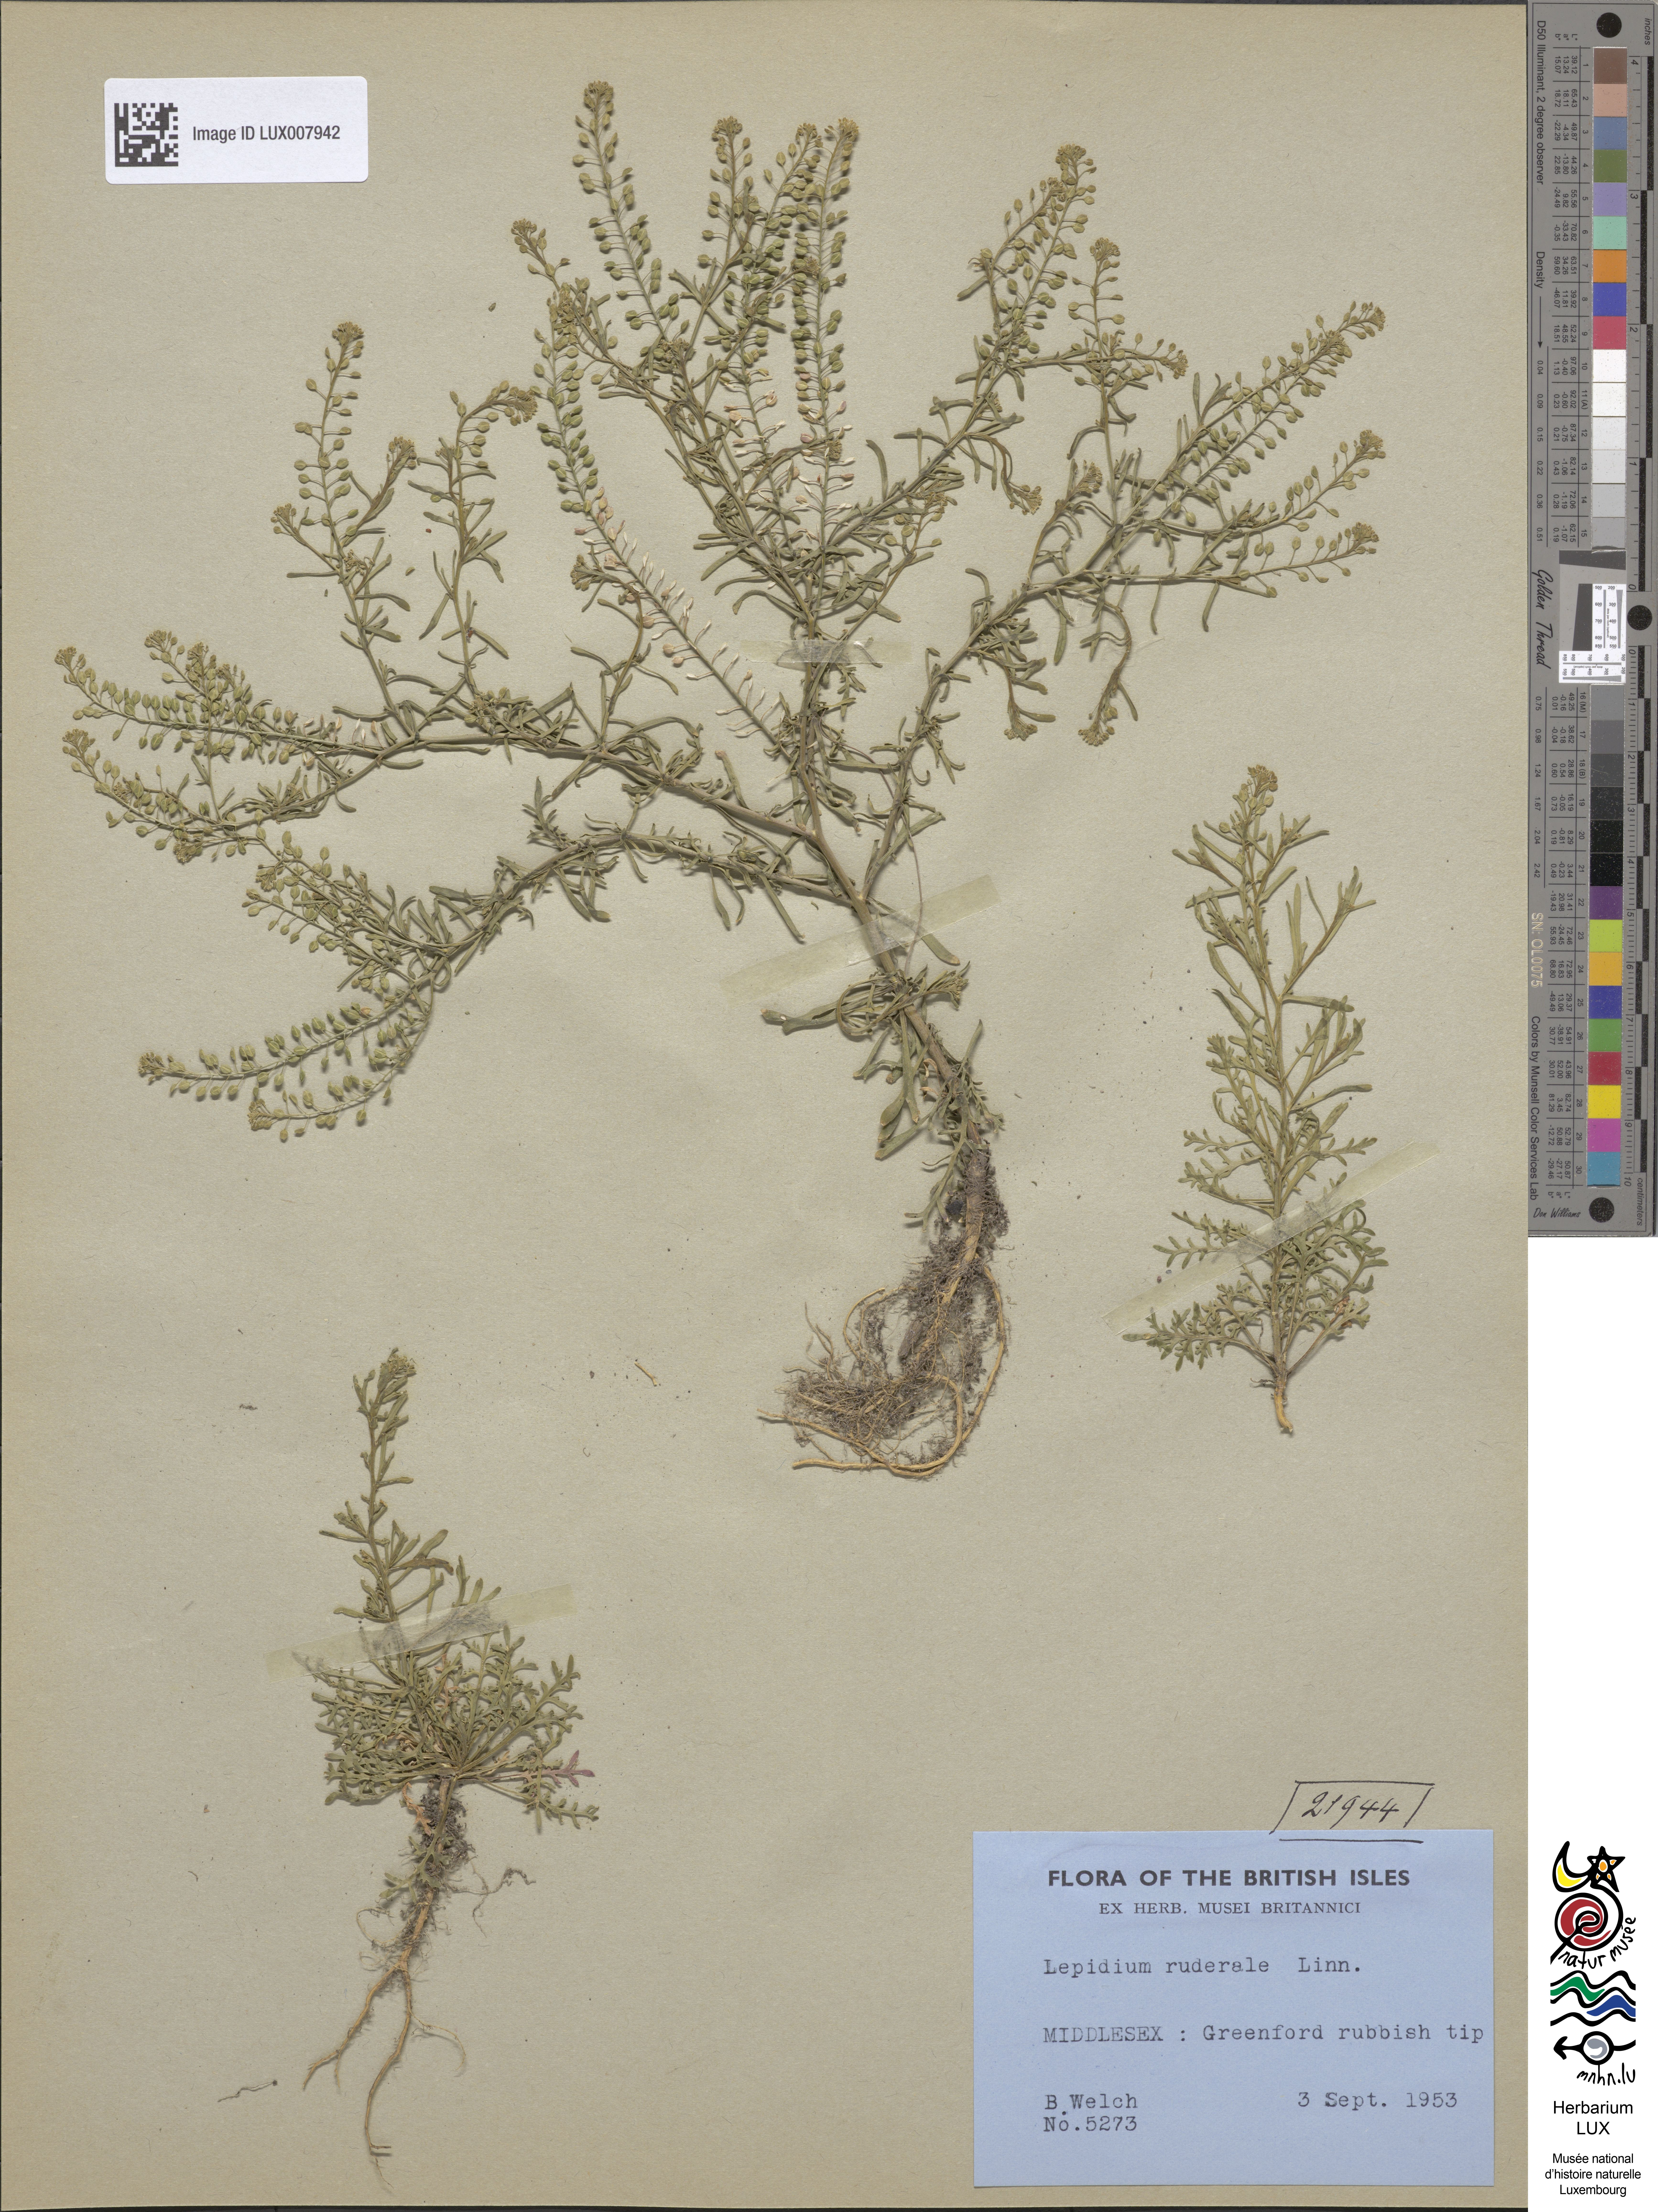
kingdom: Plantae
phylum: Tracheophyta
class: Magnoliopsida
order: Brassicales
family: Brassicaceae
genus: Lepidium
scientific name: Lepidium ruderale
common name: Narrow-leaved pepperwort
